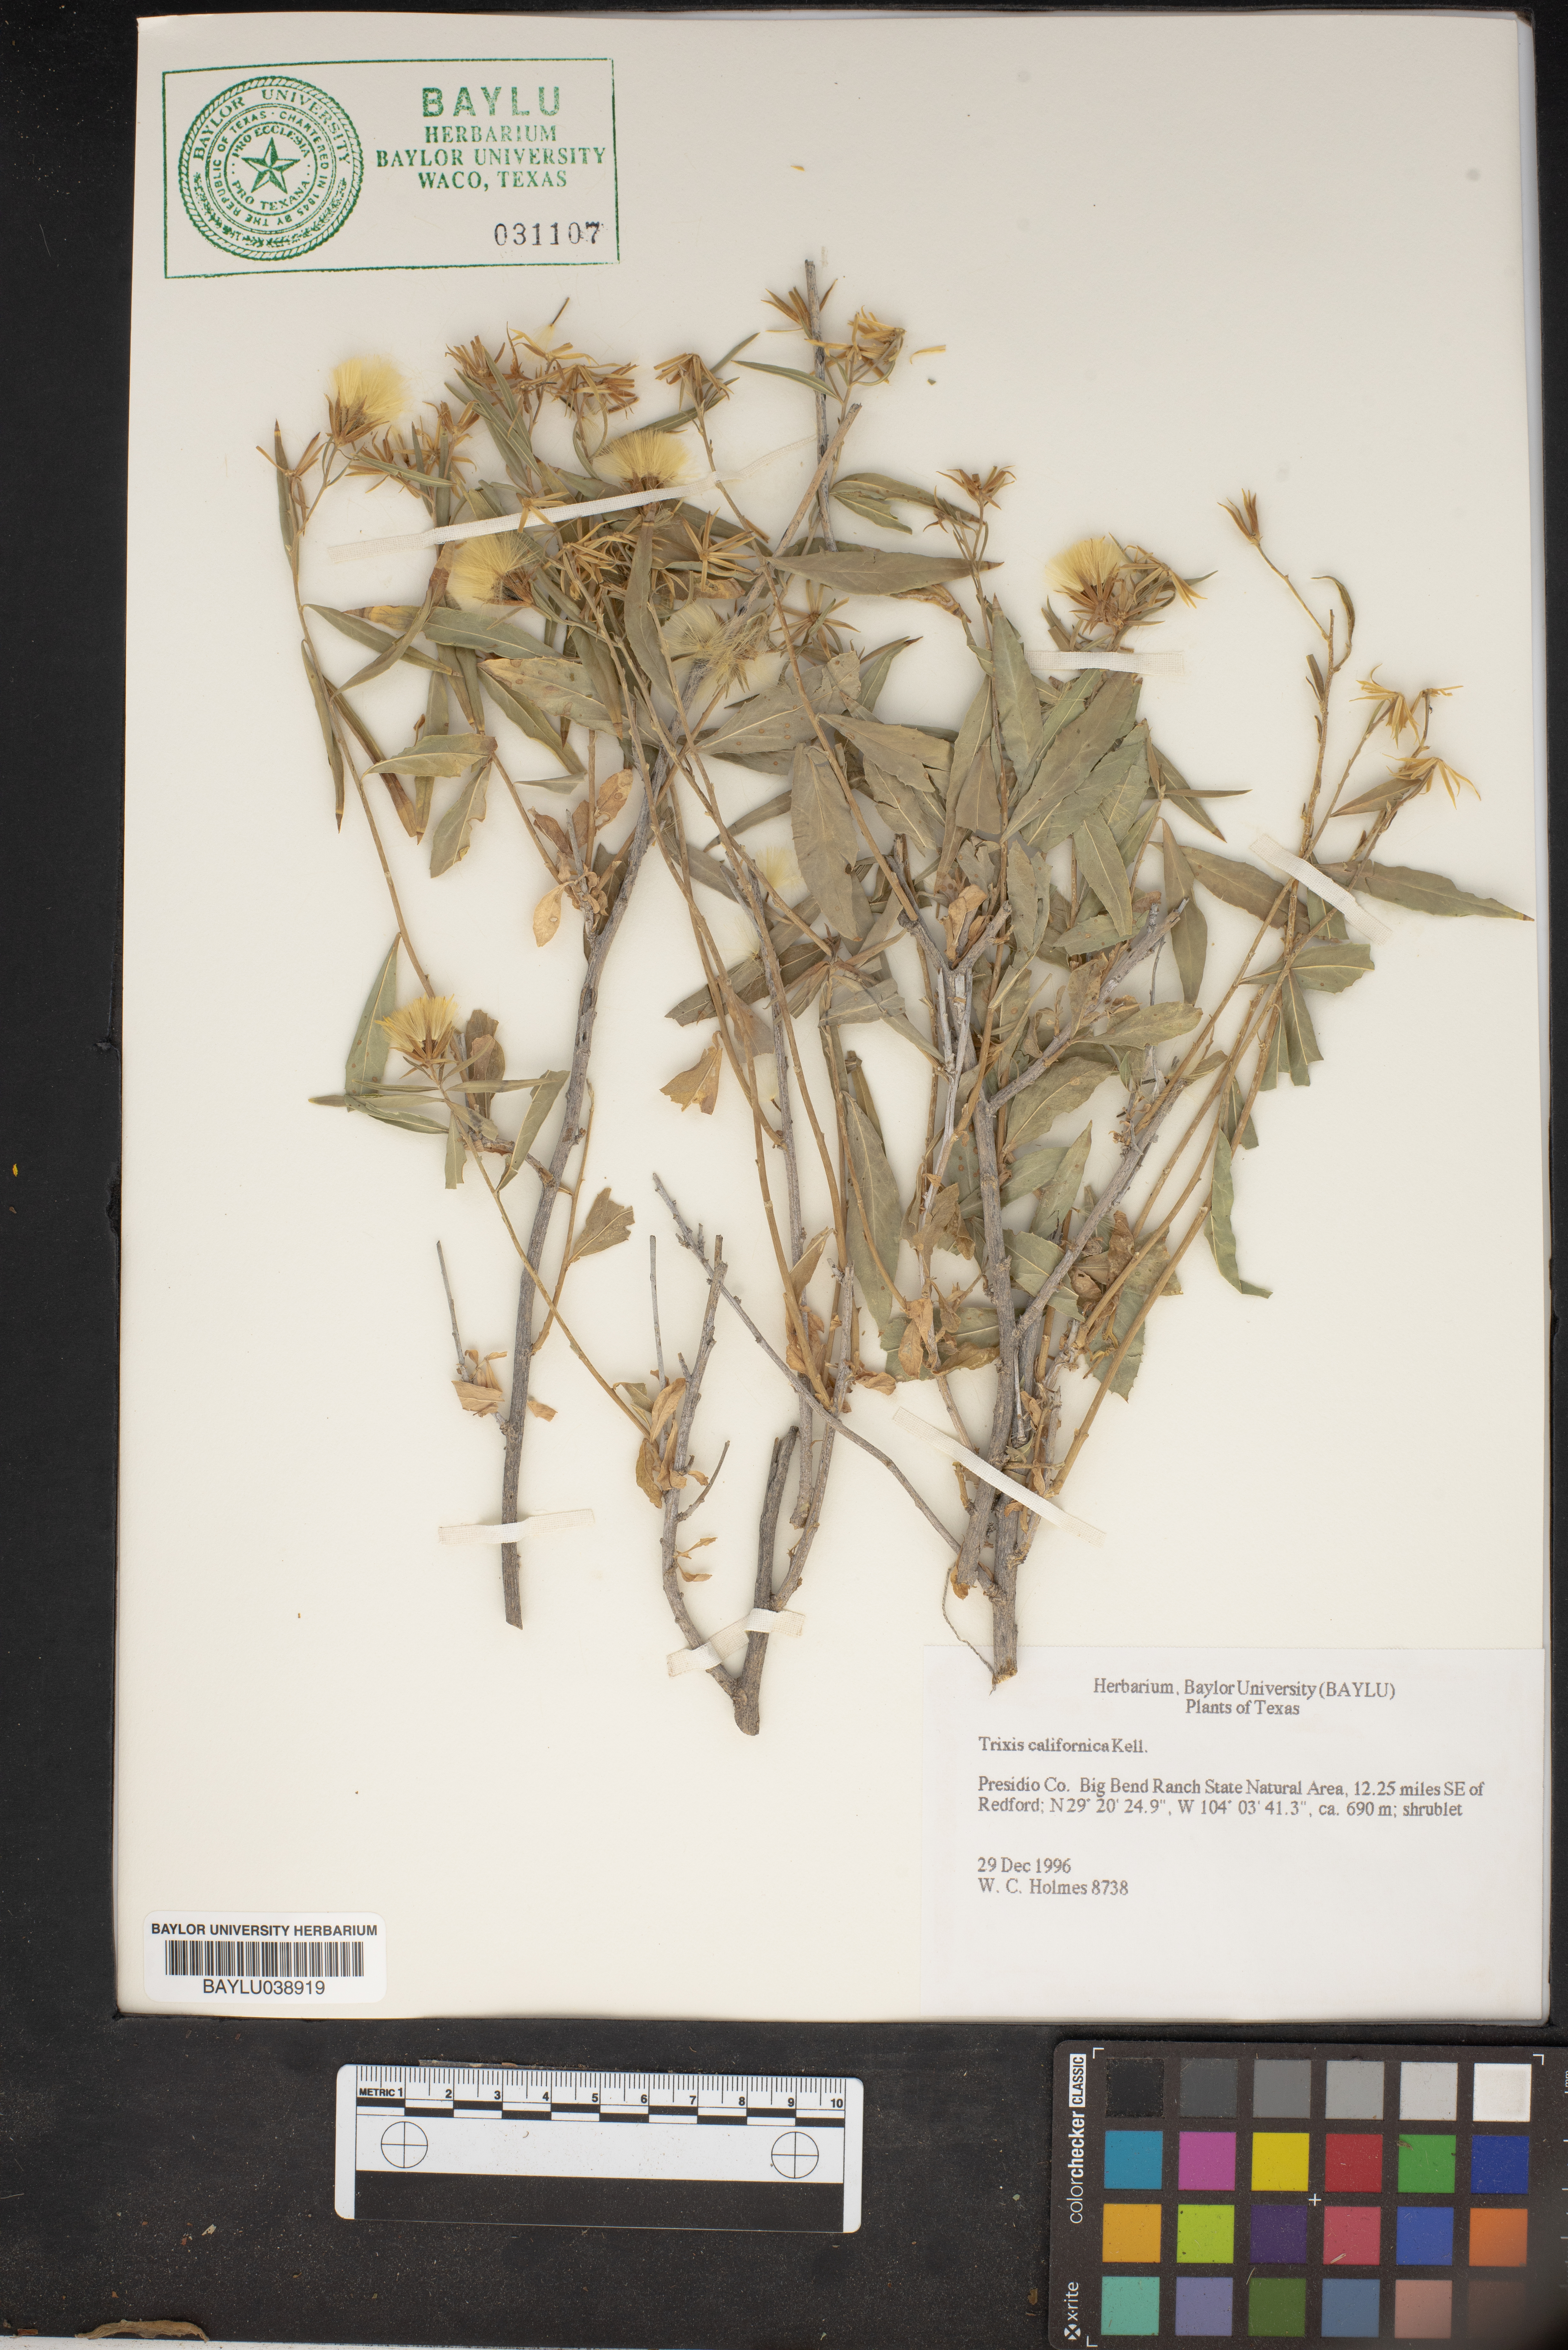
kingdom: Plantae
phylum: Tracheophyta
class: Magnoliopsida
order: Asterales
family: Asteraceae
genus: Trixis
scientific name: Trixis californica
